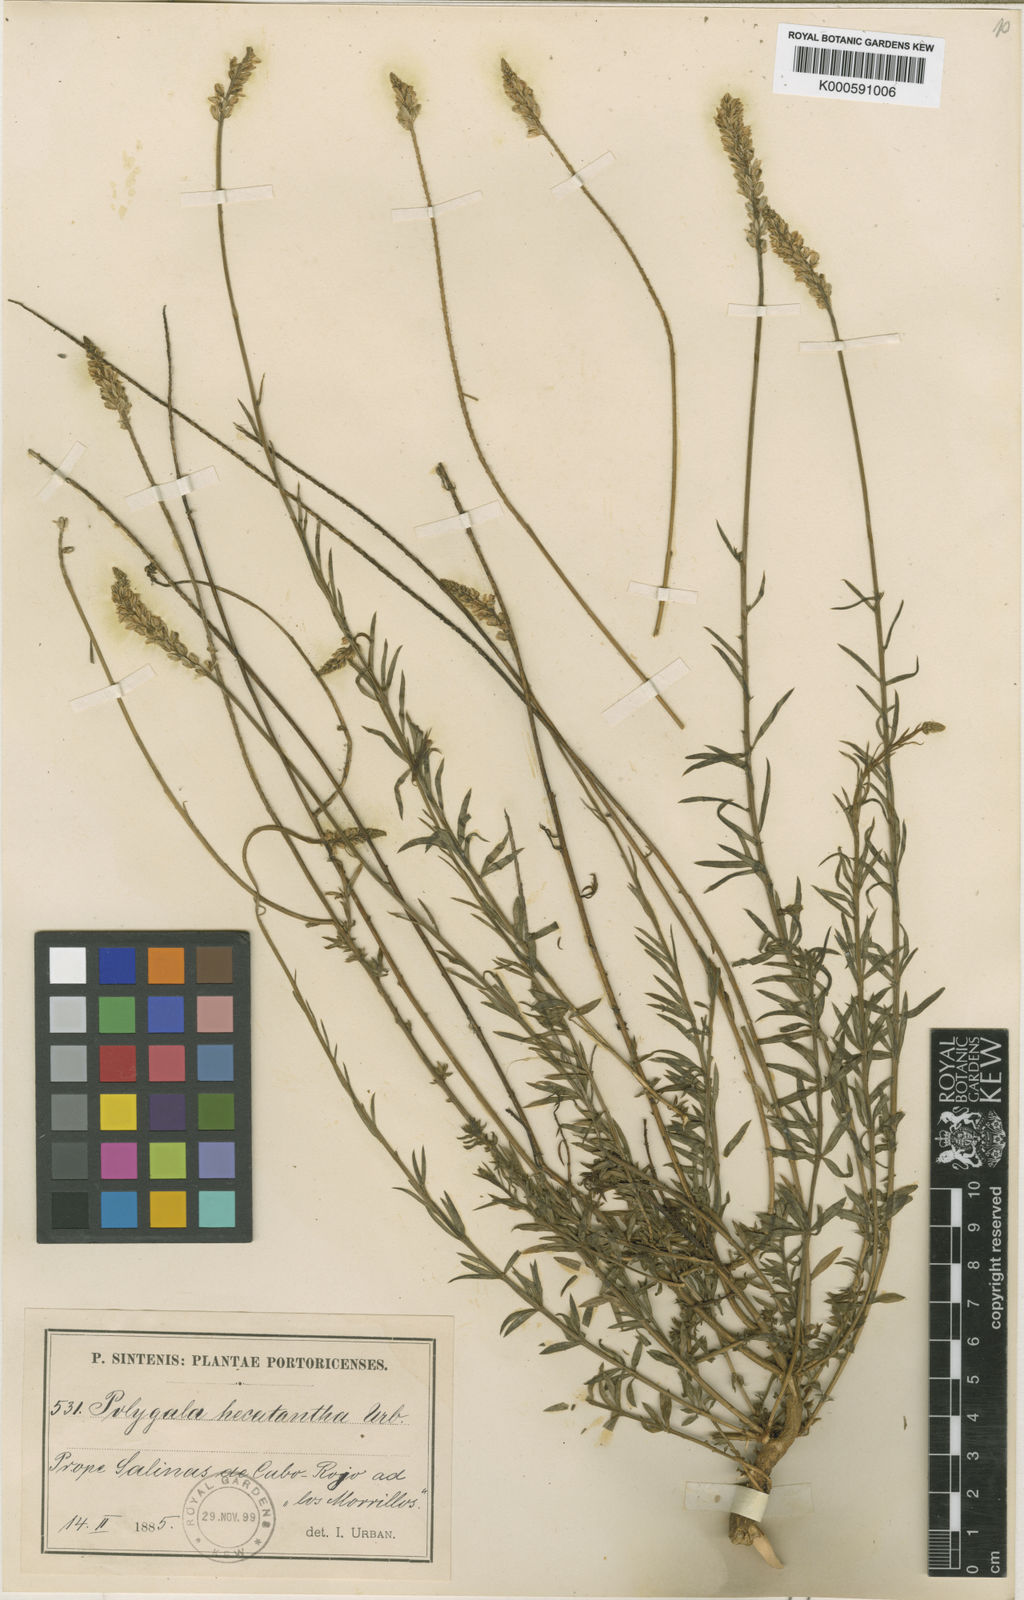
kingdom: Plantae
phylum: Tracheophyta
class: Magnoliopsida
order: Fabales
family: Polygalaceae
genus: Polygala
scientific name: Polygala hecatantha
